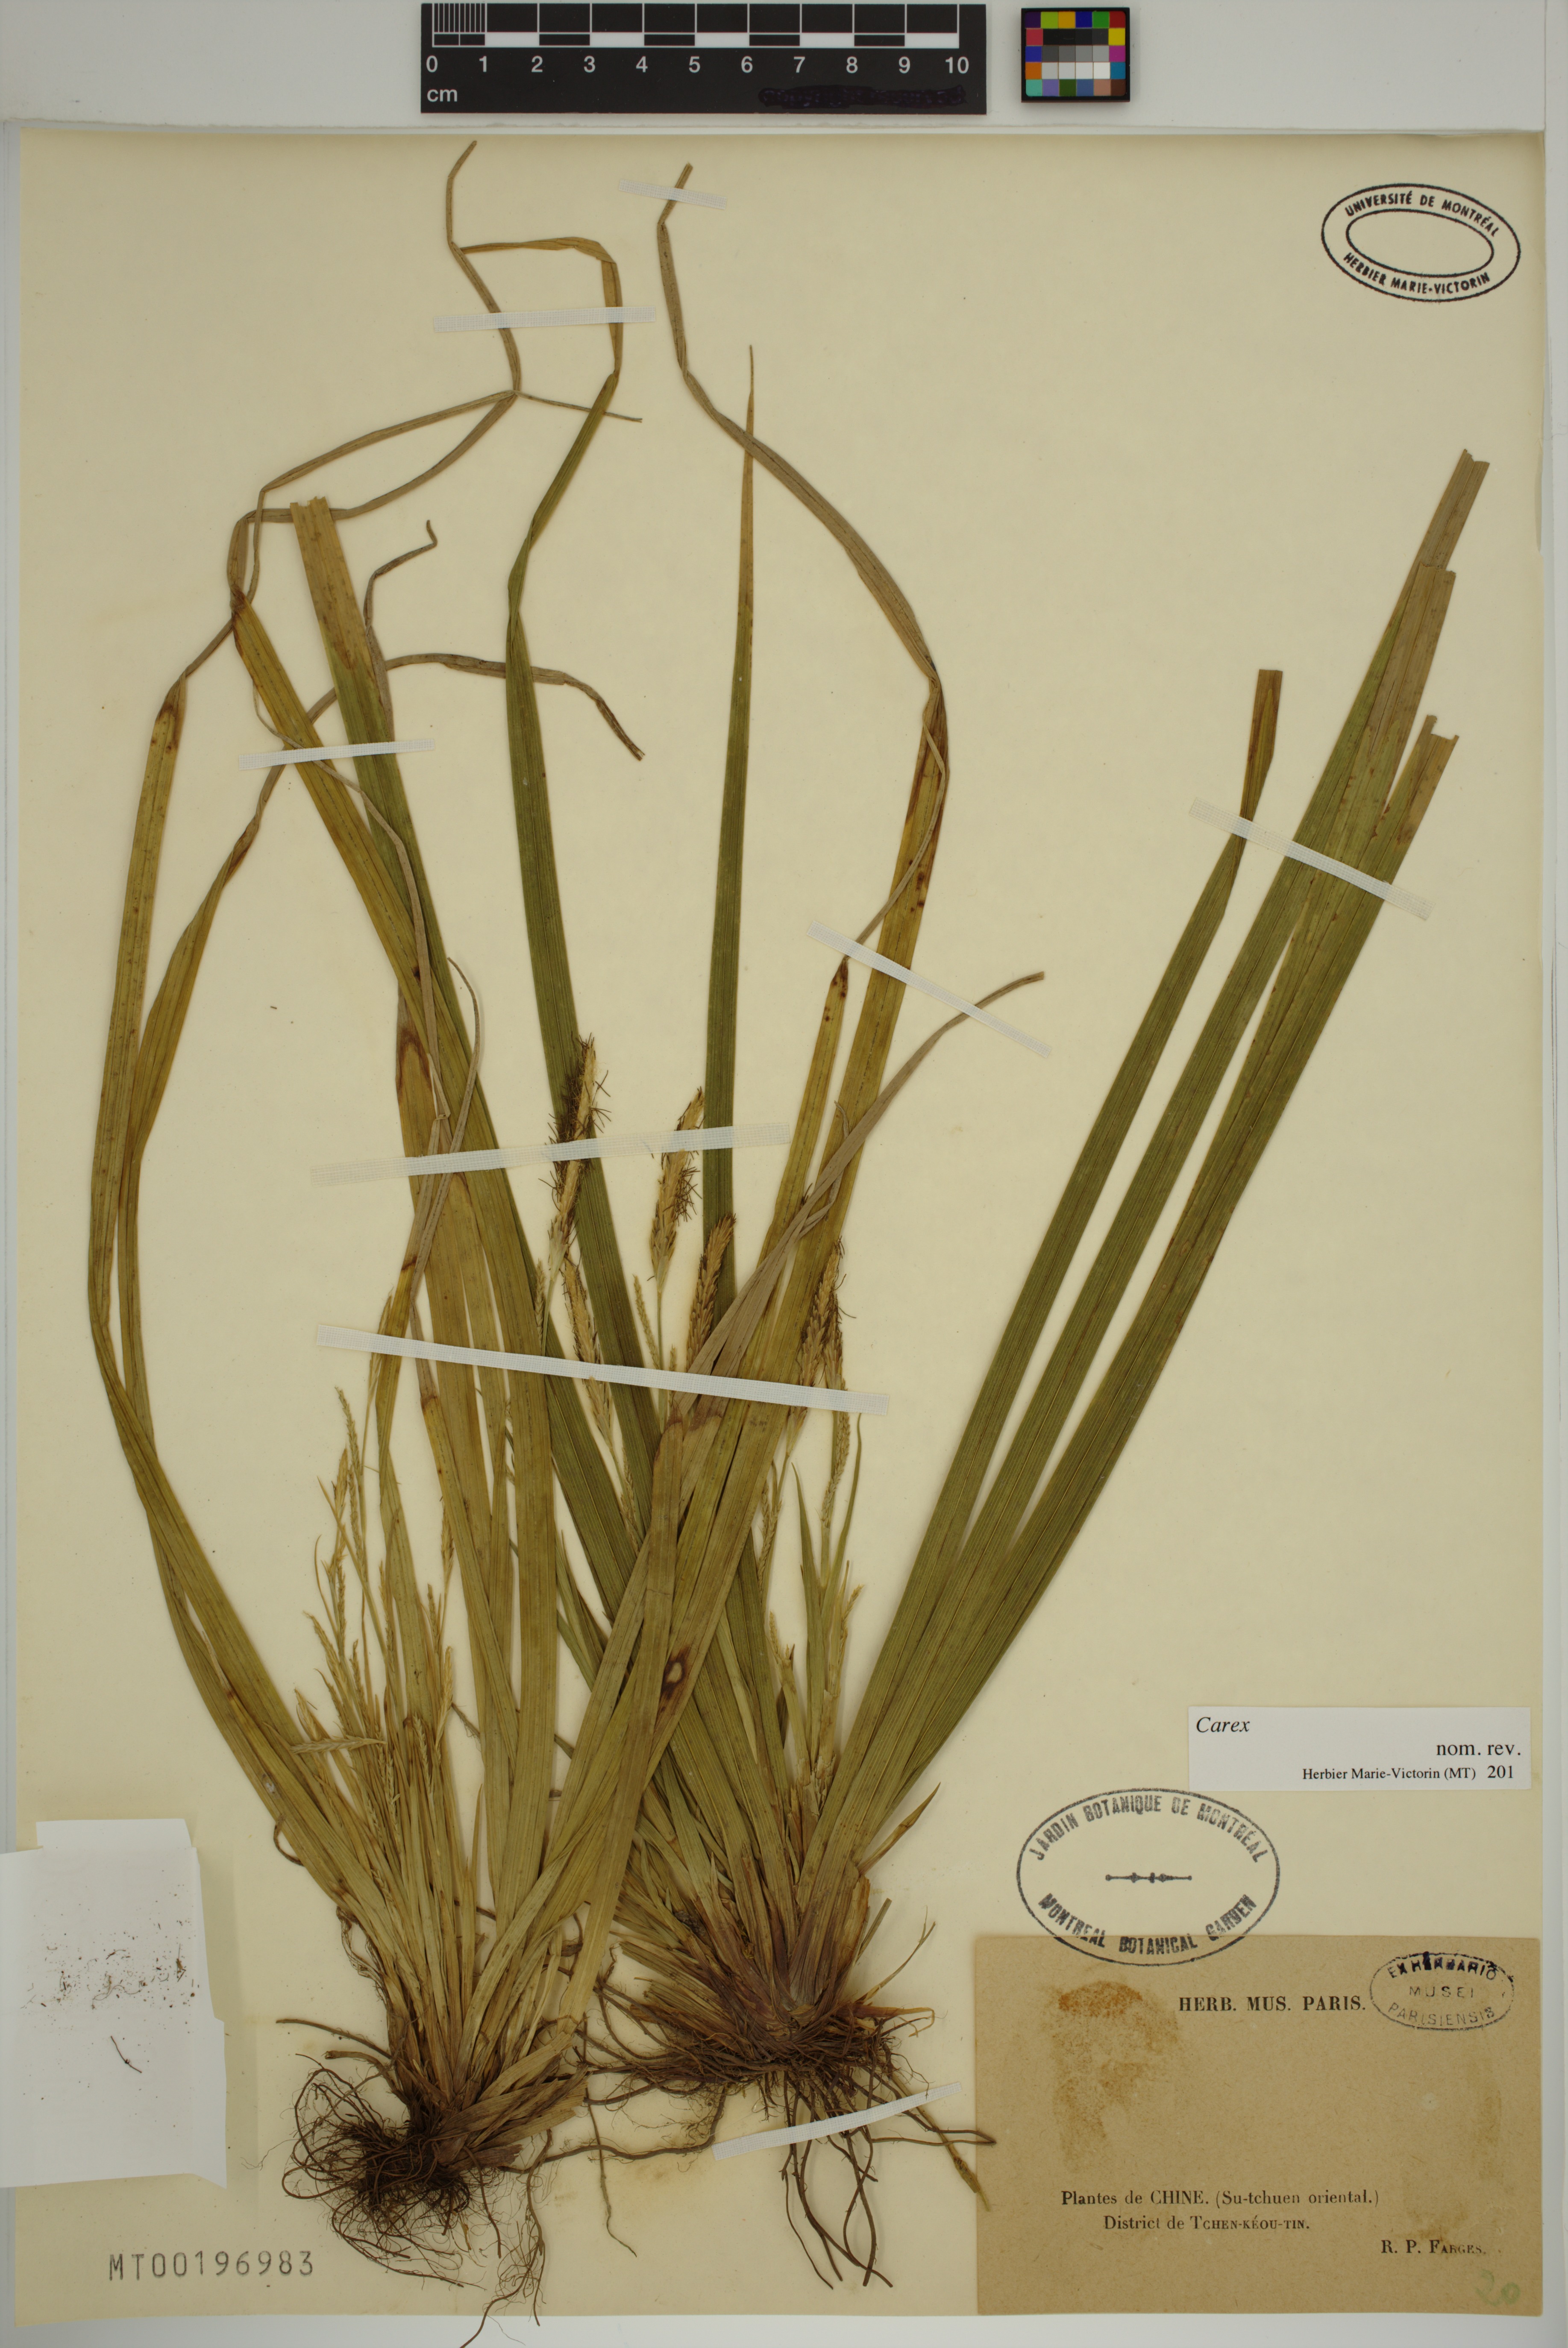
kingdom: Plantae
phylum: Tracheophyta
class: Liliopsida
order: Poales
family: Cyperaceae
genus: Carex
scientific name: Carex
